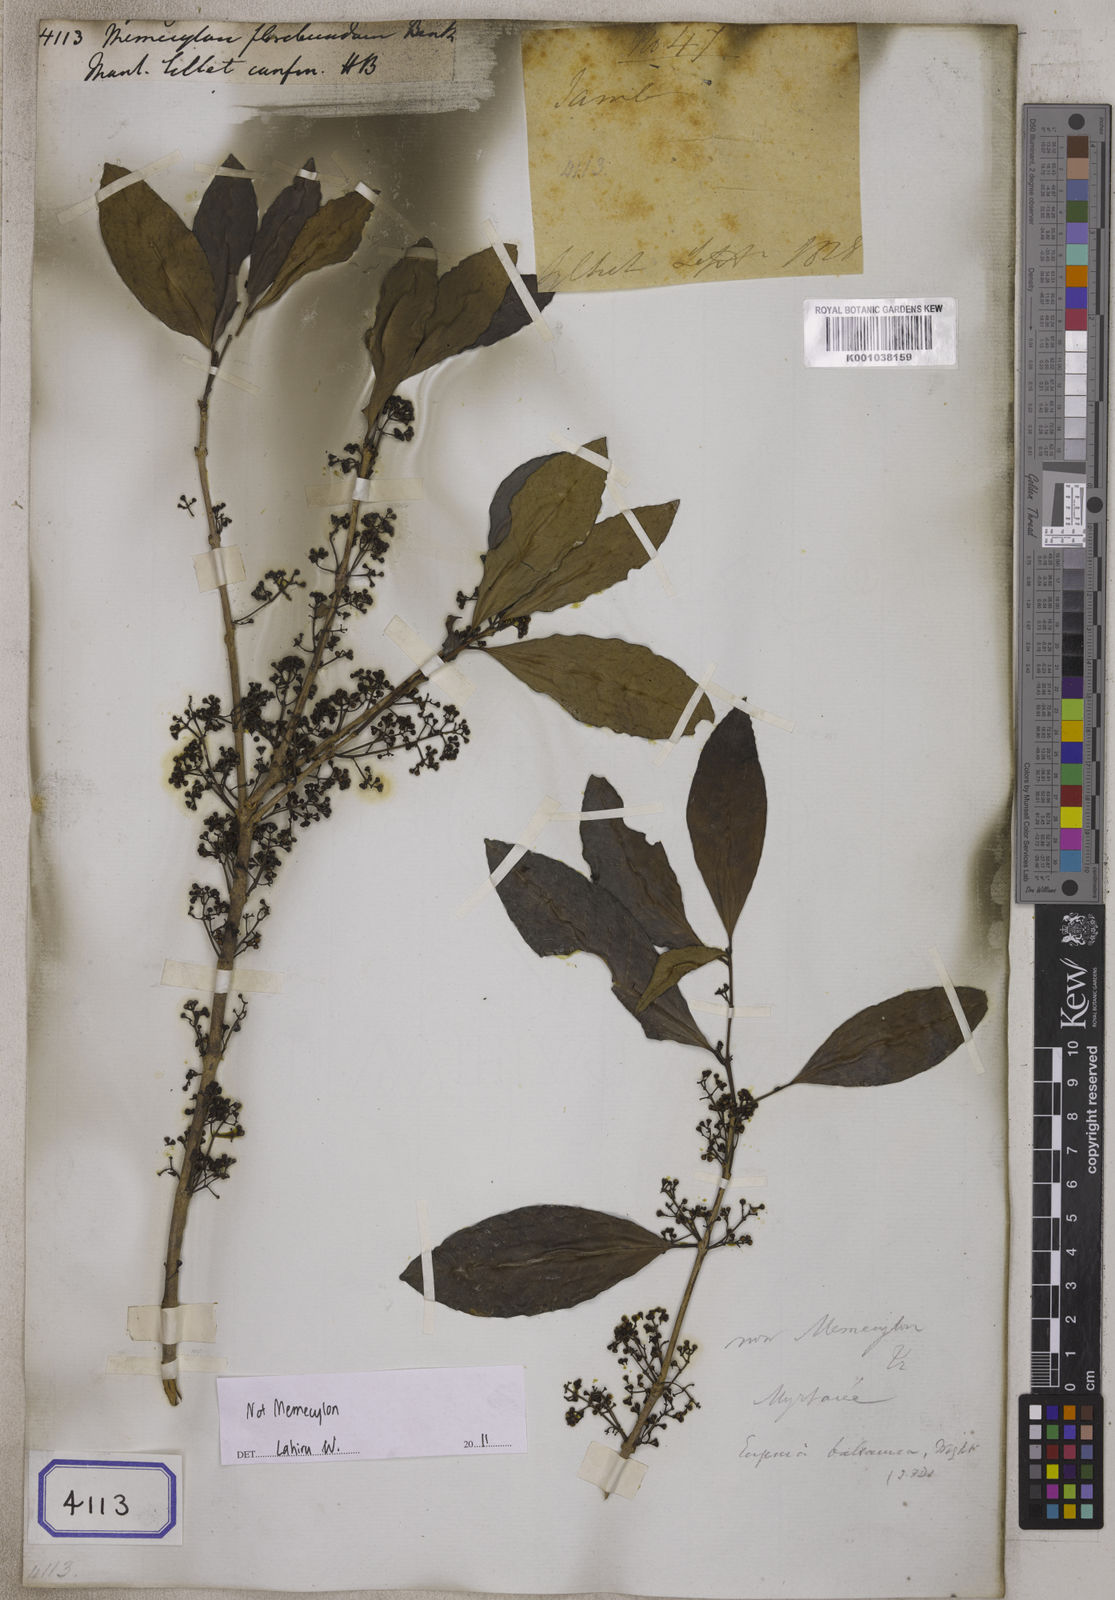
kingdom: Plantae
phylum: Tracheophyta
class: Magnoliopsida
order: Myrtales
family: Melastomataceae
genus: Memecylon
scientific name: Memecylon
